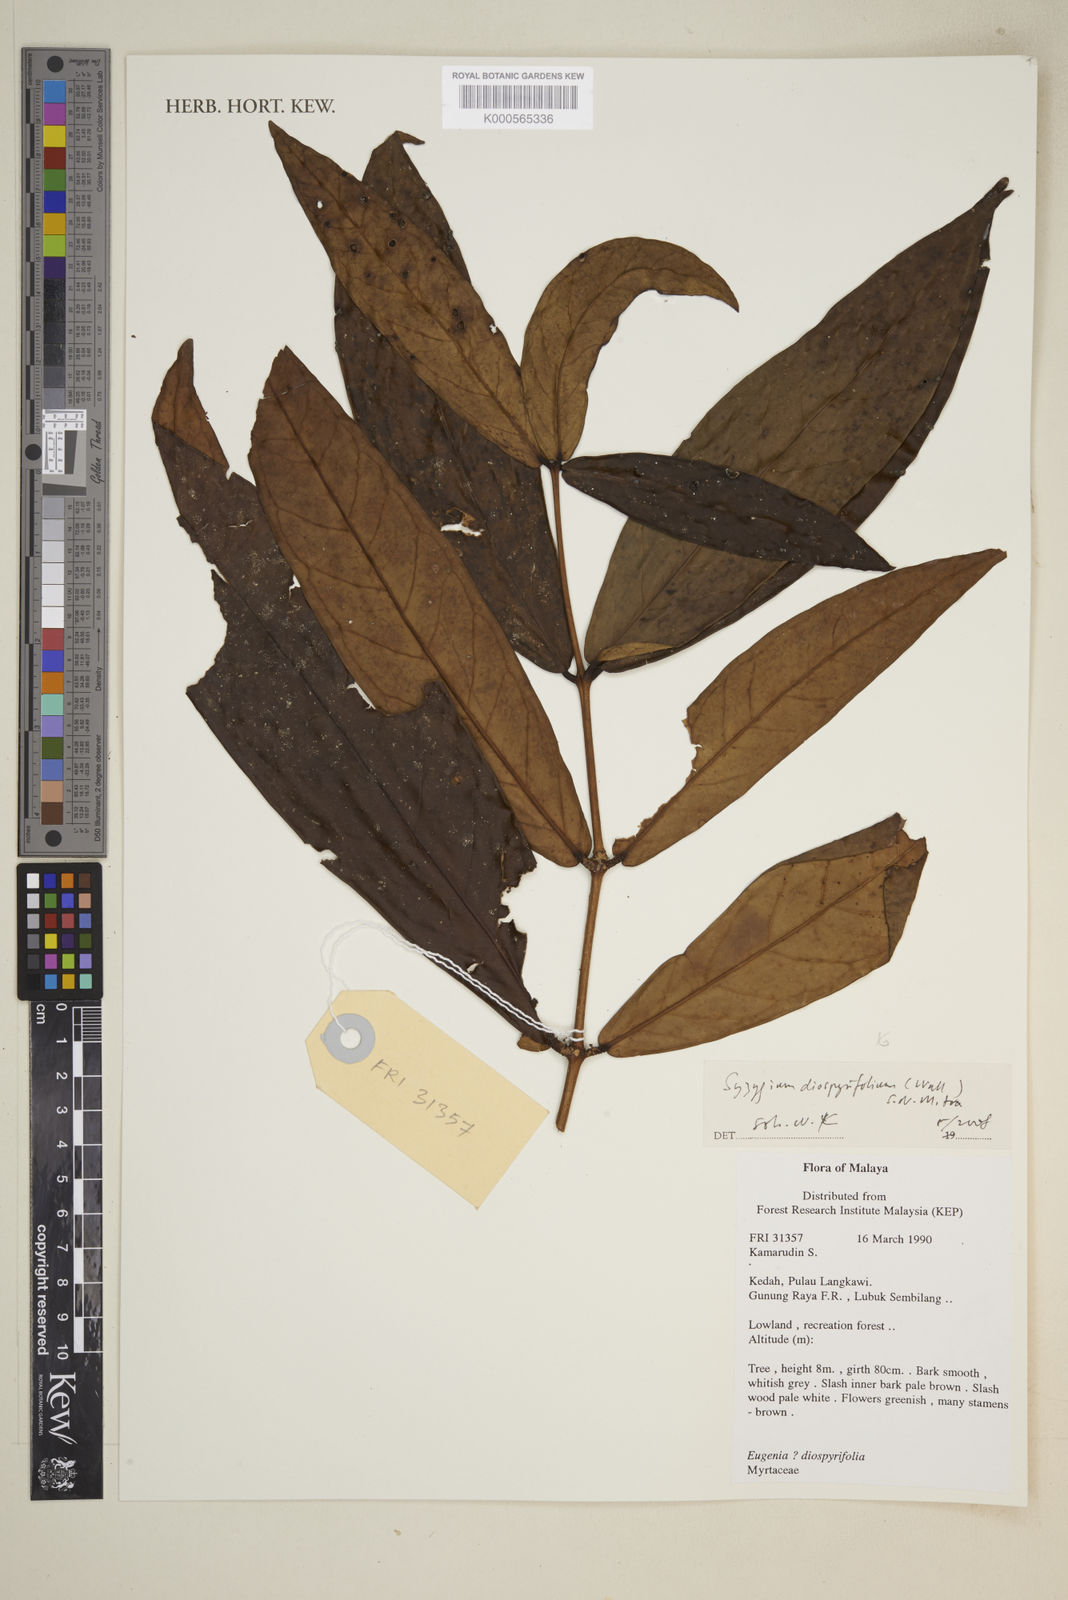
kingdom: Plantae
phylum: Tracheophyta
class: Magnoliopsida
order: Myrtales
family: Myrtaceae
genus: Syzygium
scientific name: Syzygium diospyrifolium
